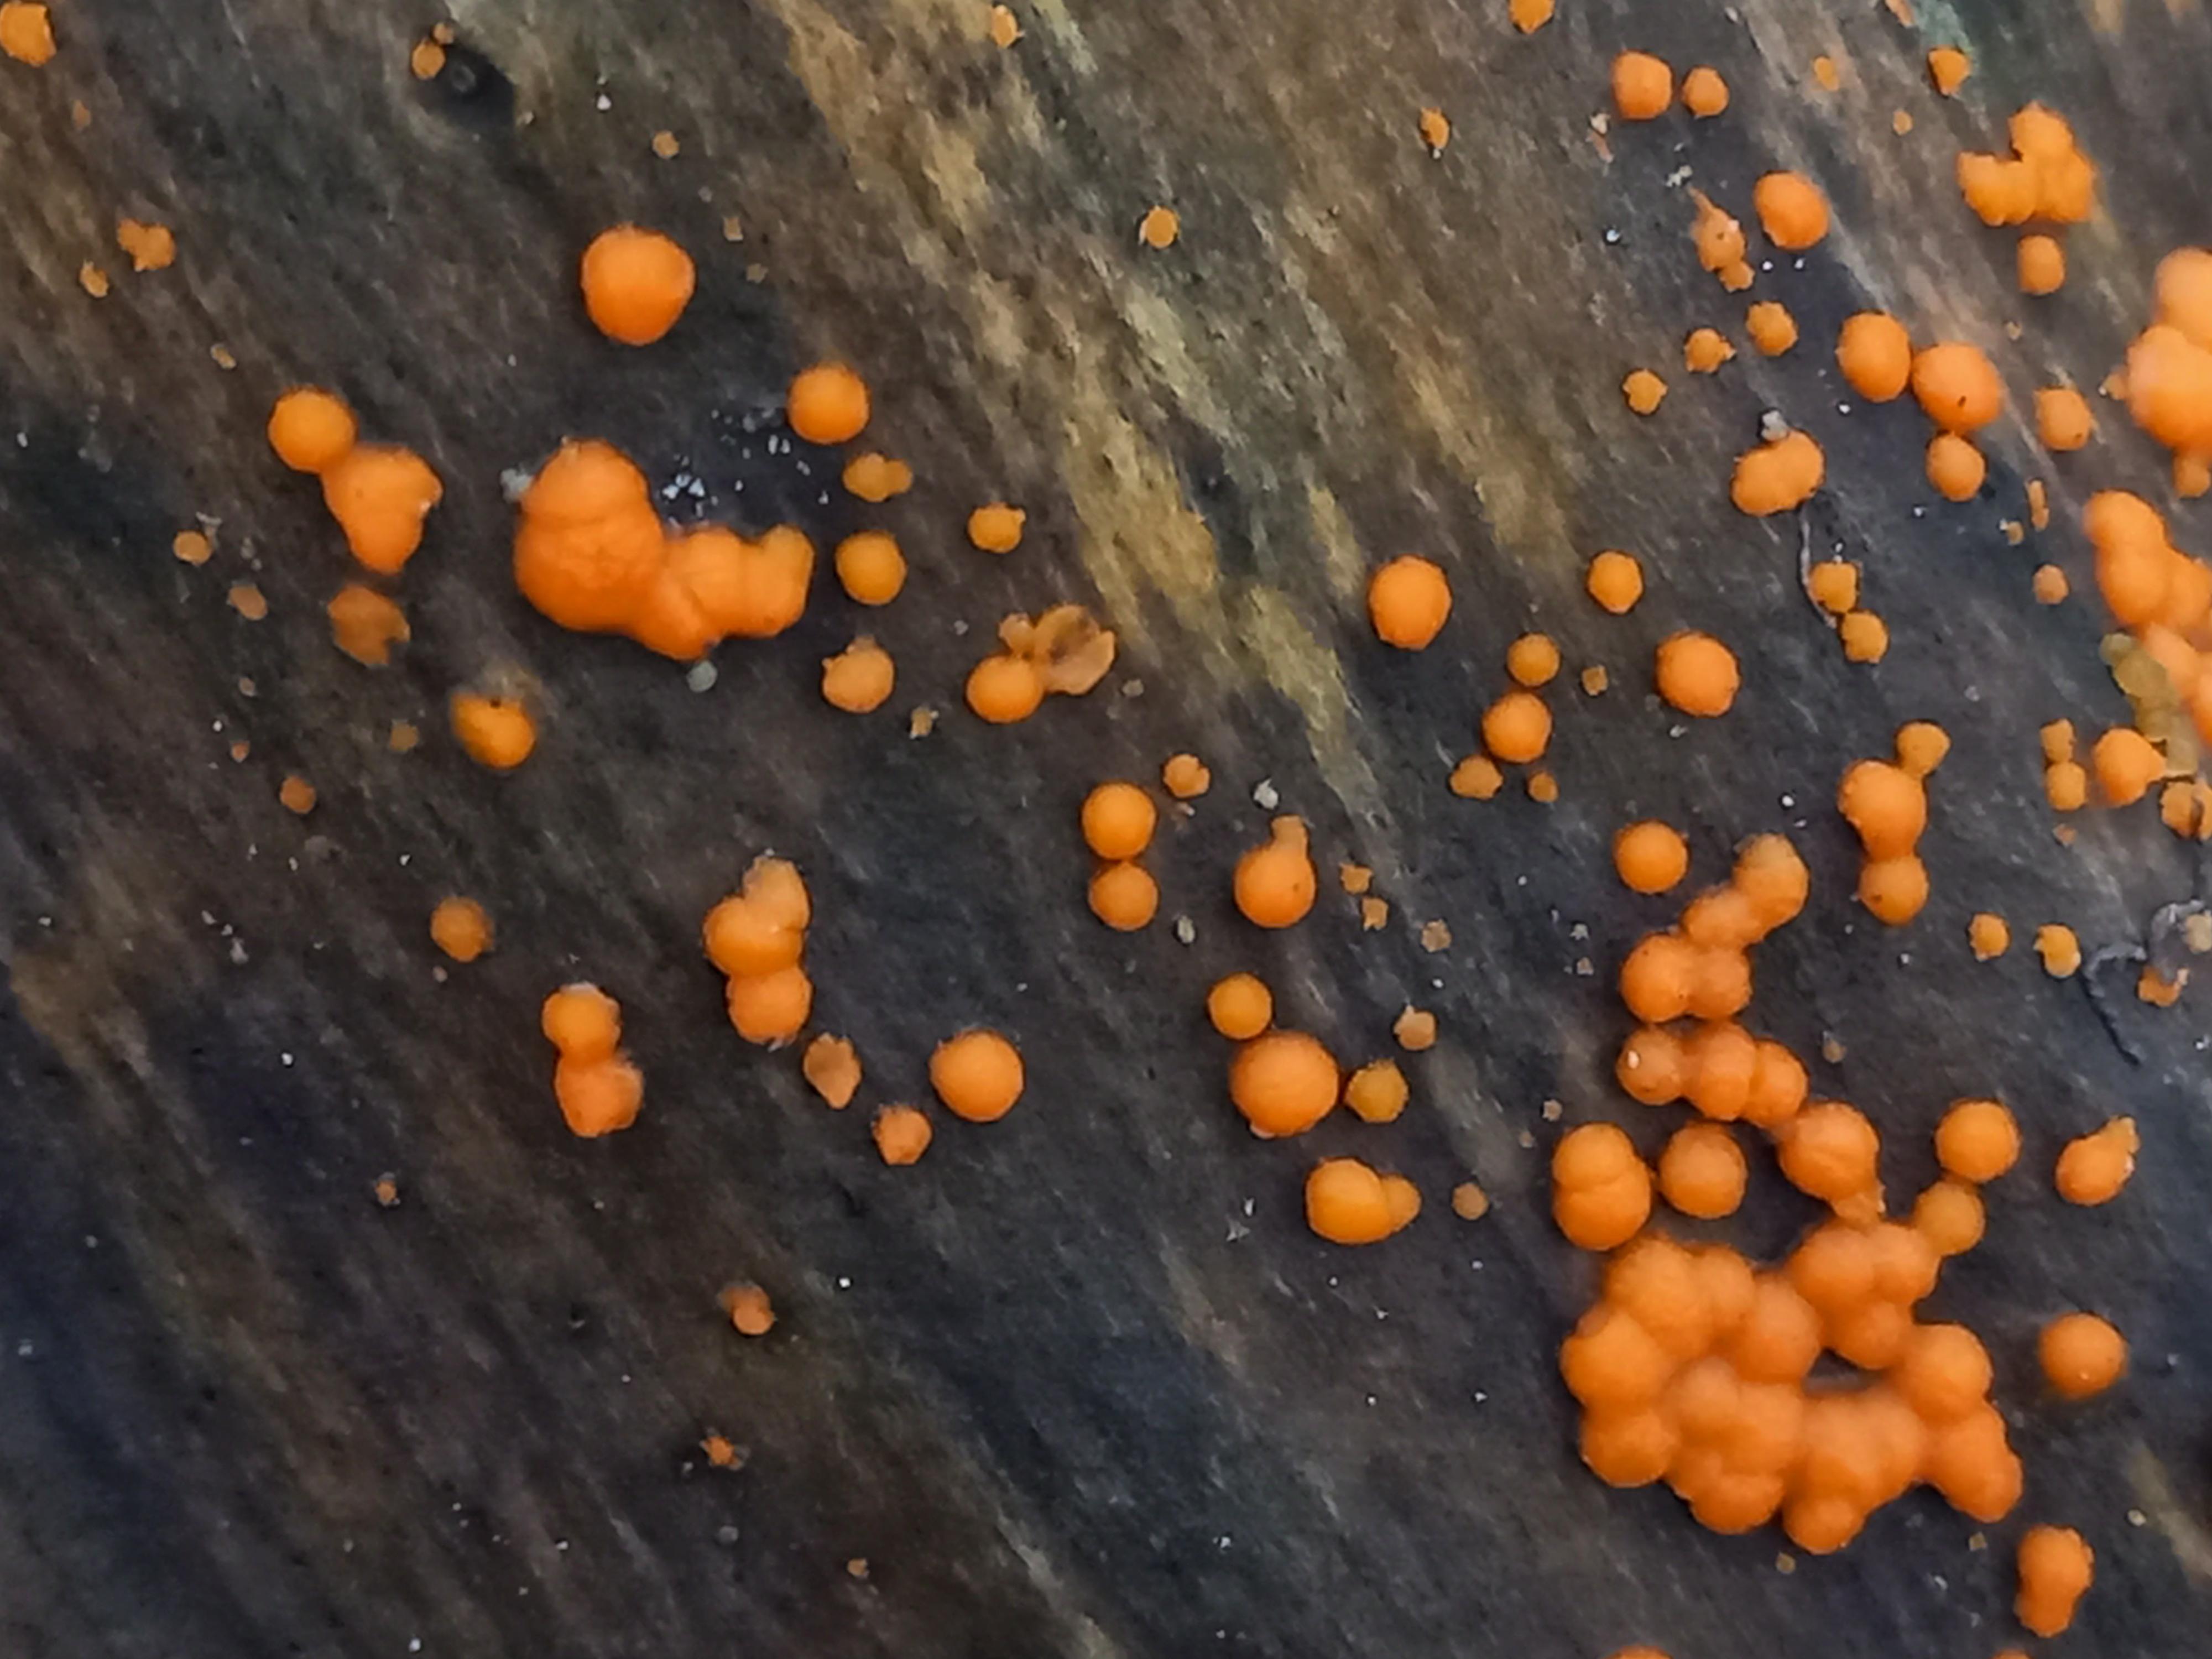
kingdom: Fungi
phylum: Basidiomycota
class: Dacrymycetes
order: Dacrymycetales
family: Dacrymycetaceae
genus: Dacrymyces
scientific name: Dacrymyces stillatus
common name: almindelig tåresvamp
